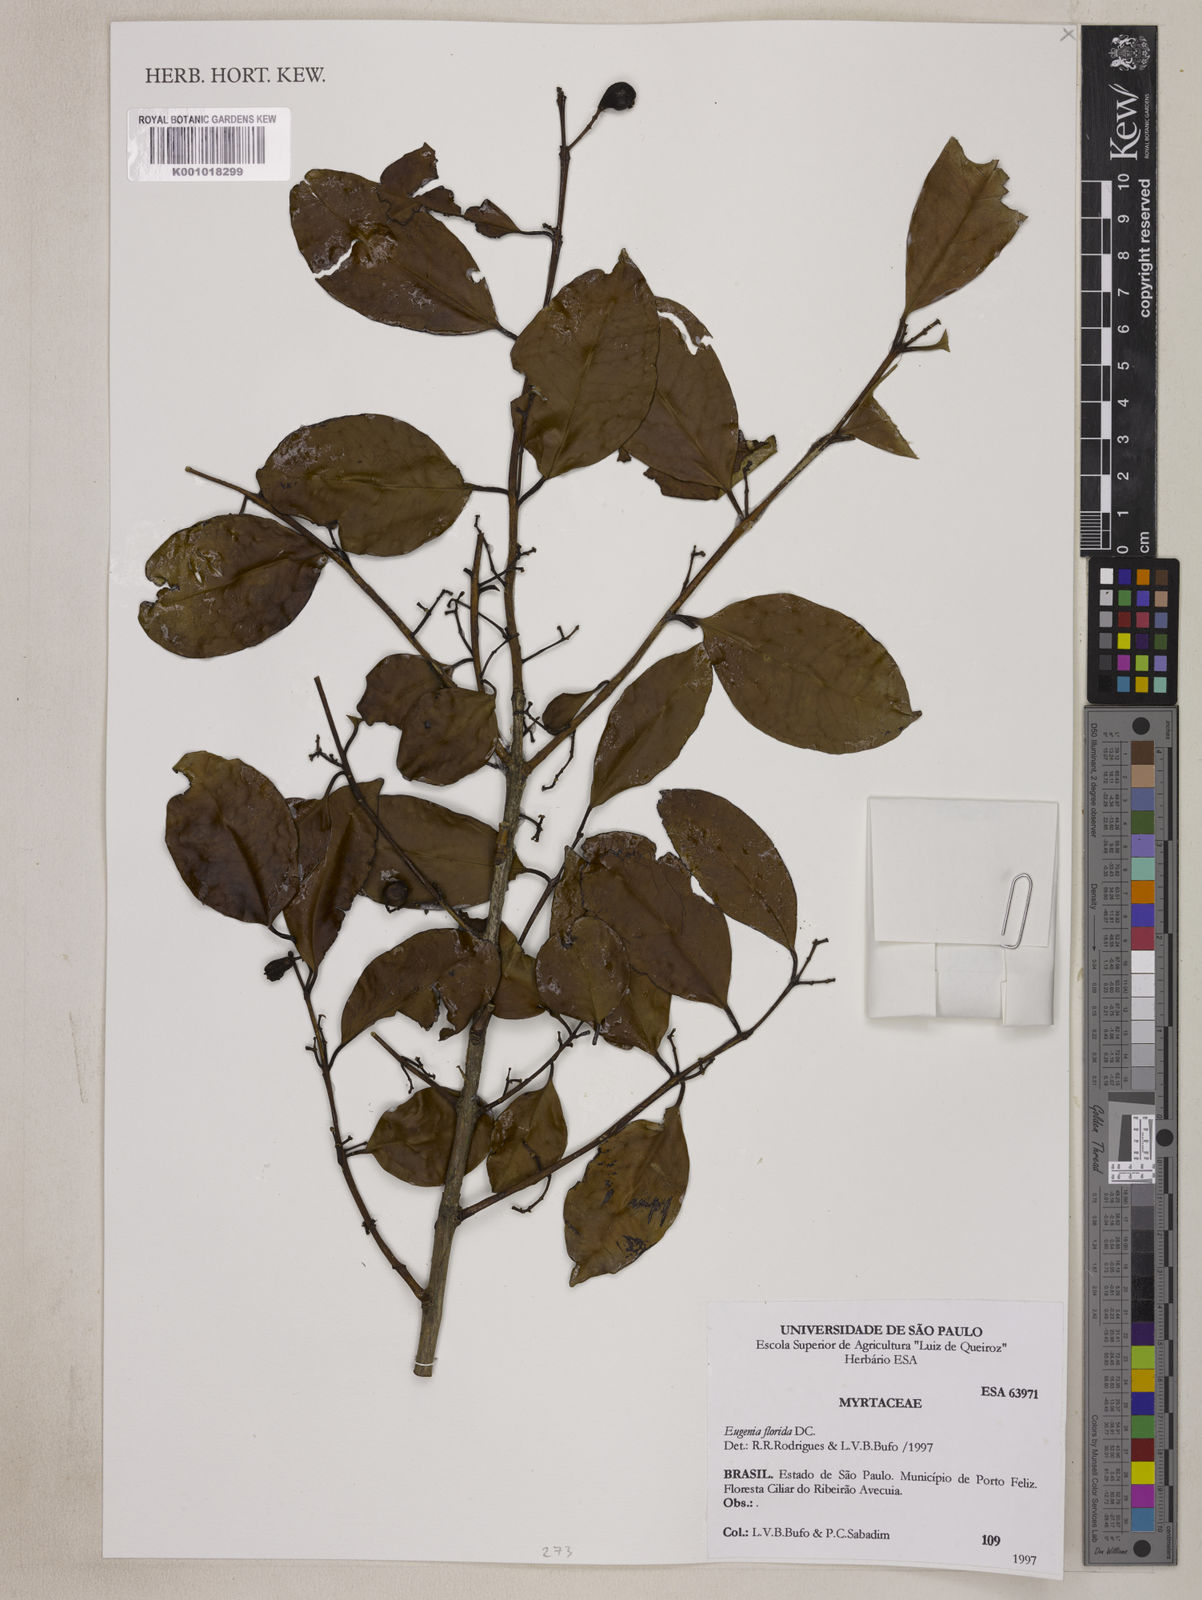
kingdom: Plantae
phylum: Tracheophyta
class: Magnoliopsida
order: Myrtales
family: Myrtaceae
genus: Eugenia
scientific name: Eugenia florida
